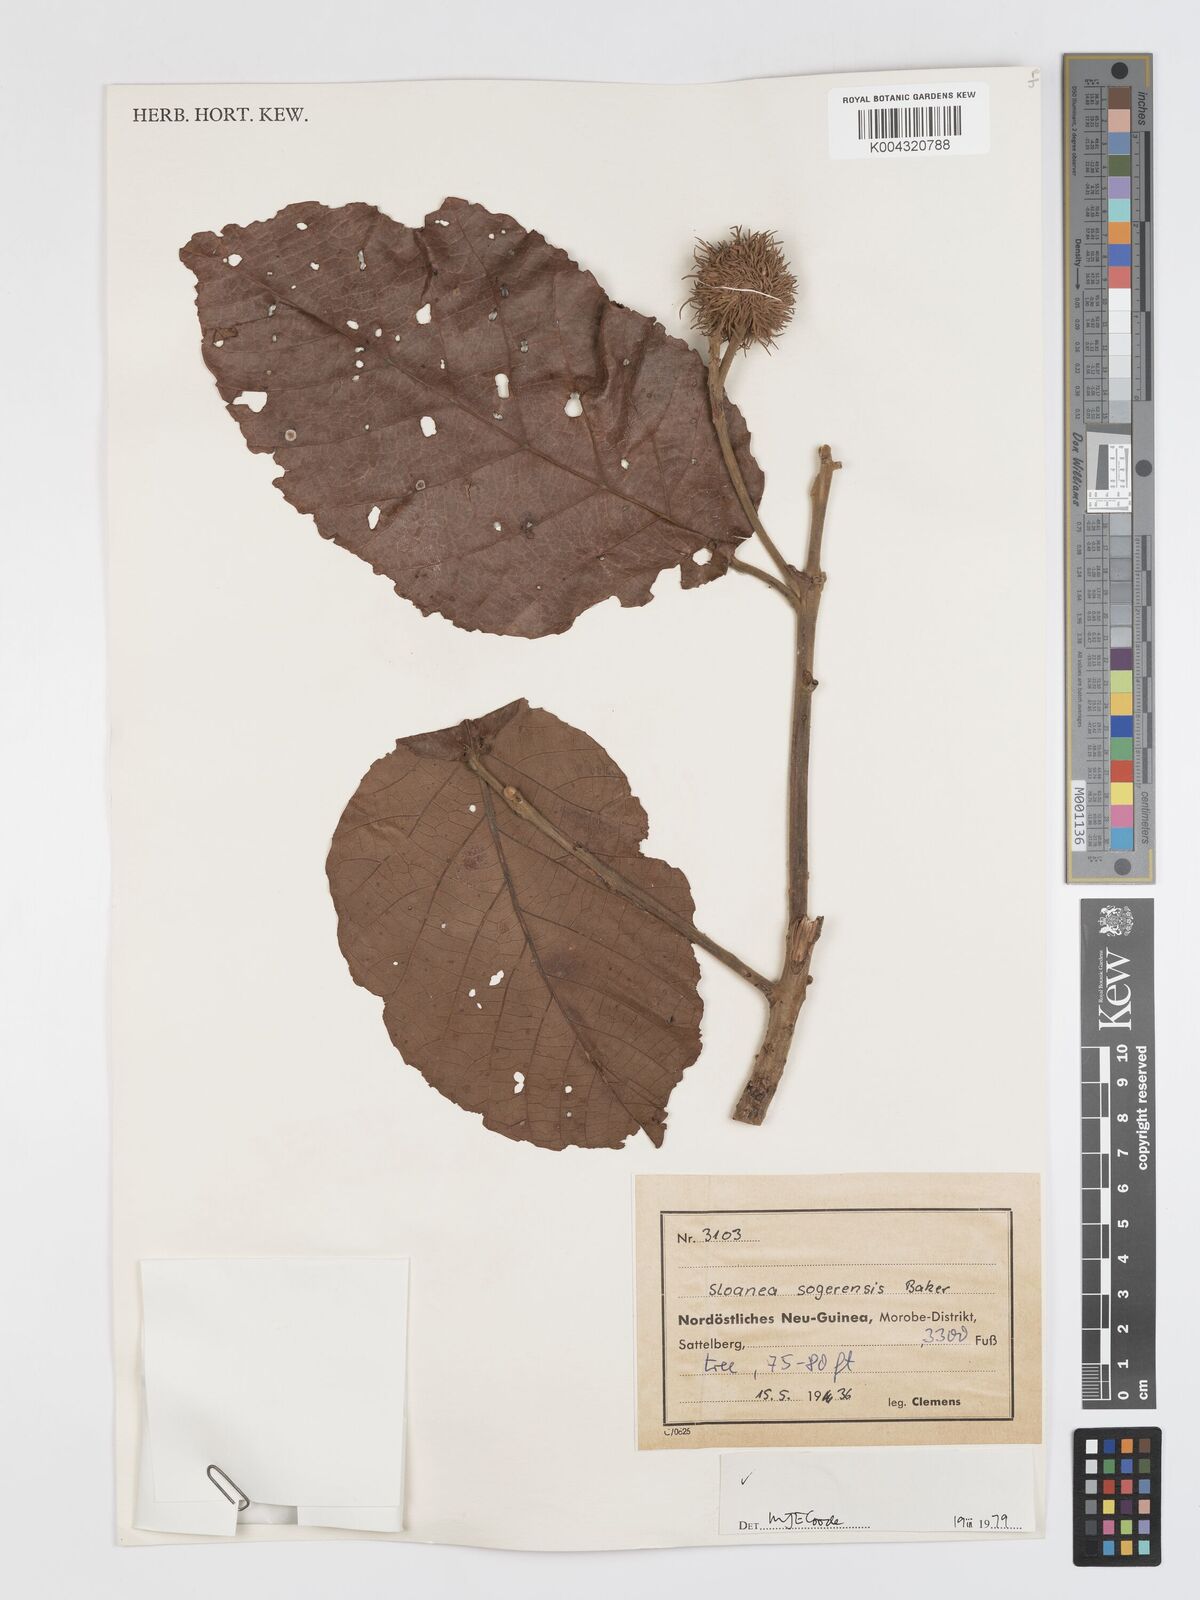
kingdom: Plantae
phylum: Tracheophyta
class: Magnoliopsida
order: Oxalidales
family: Elaeocarpaceae
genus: Sloanea
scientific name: Sloanea sogerensis
